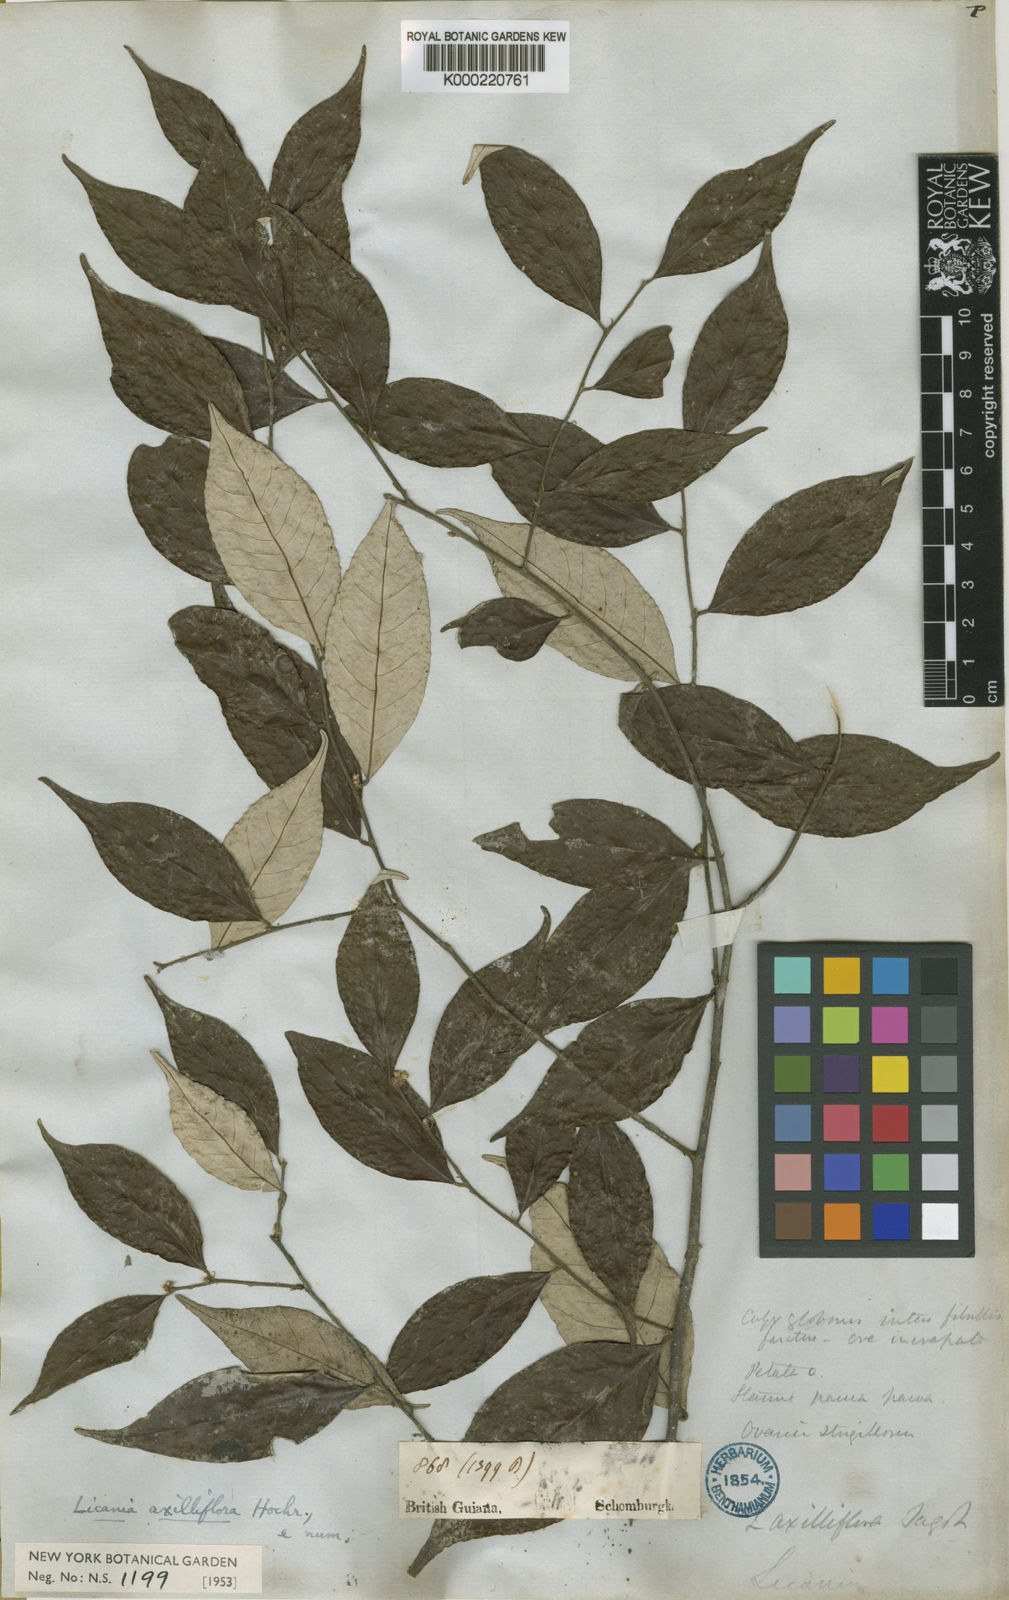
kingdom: Plantae
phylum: Tracheophyta
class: Magnoliopsida
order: Malpighiales
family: Chrysobalanaceae
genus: Licania
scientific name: Licania leptostachya
